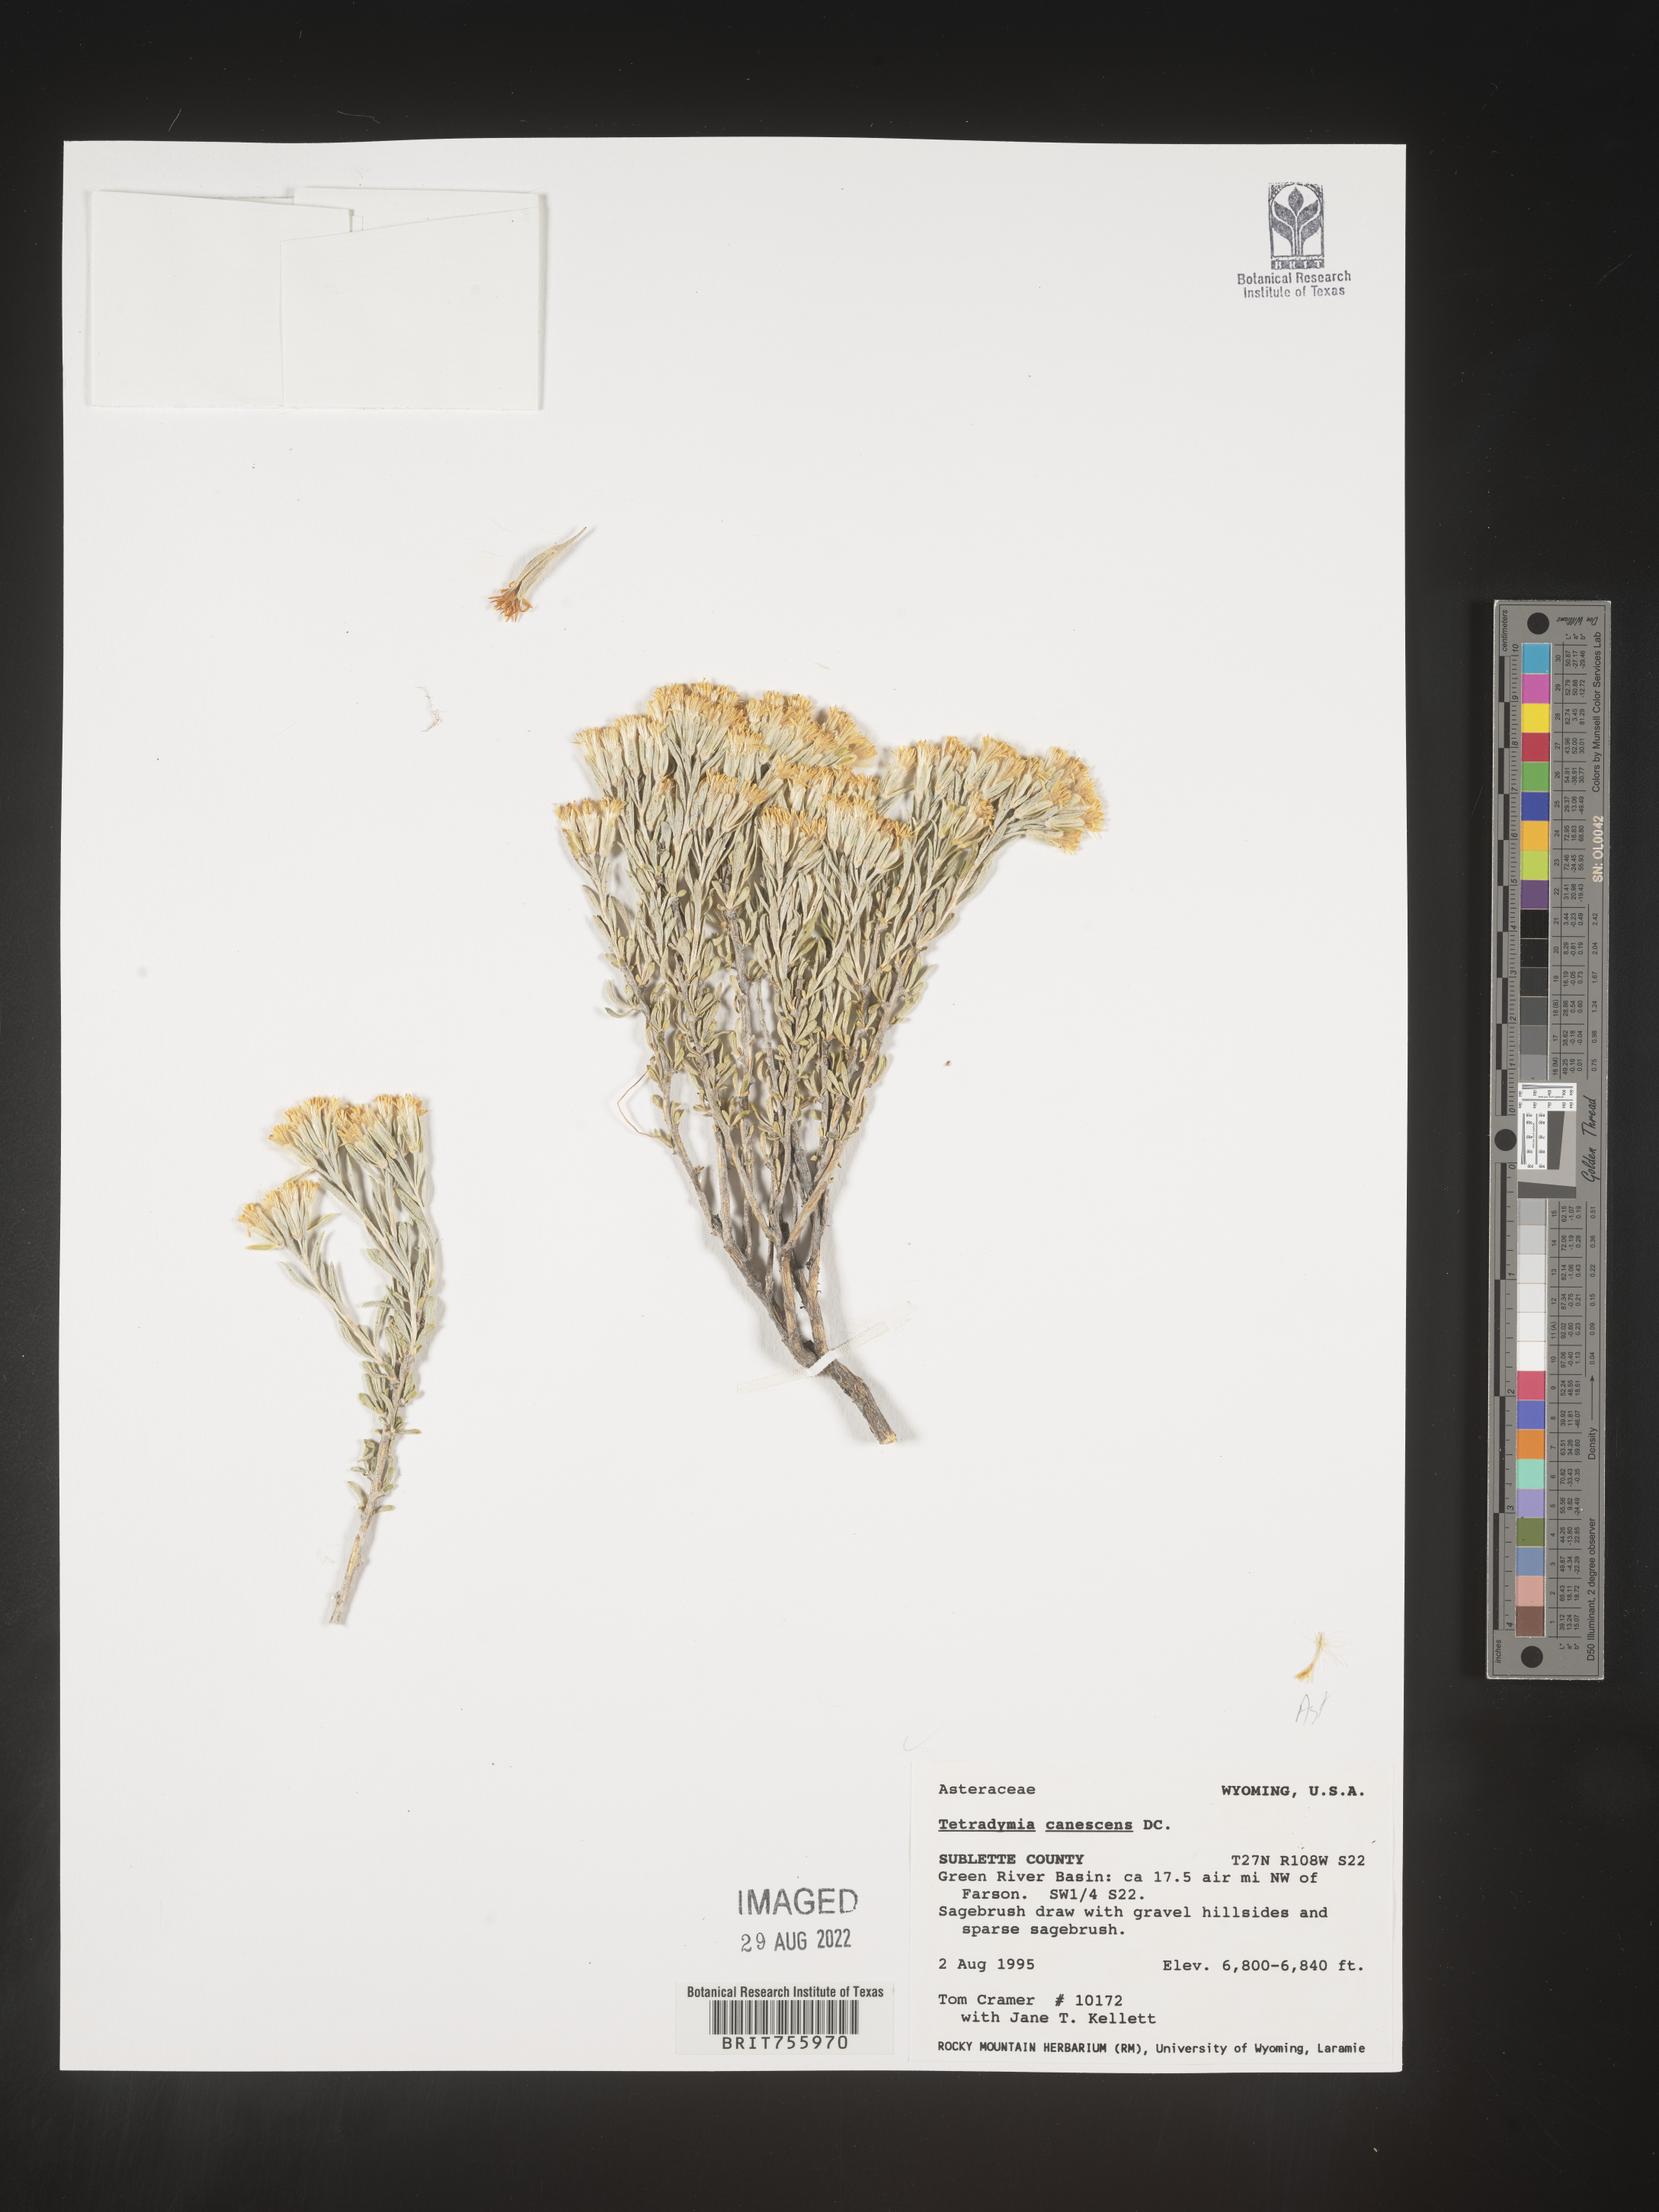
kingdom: Plantae
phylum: Tracheophyta
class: Magnoliopsida
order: Asterales
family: Asteraceae
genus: Tetradymia
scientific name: Tetradymia canescens
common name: Spineless horsebrush
